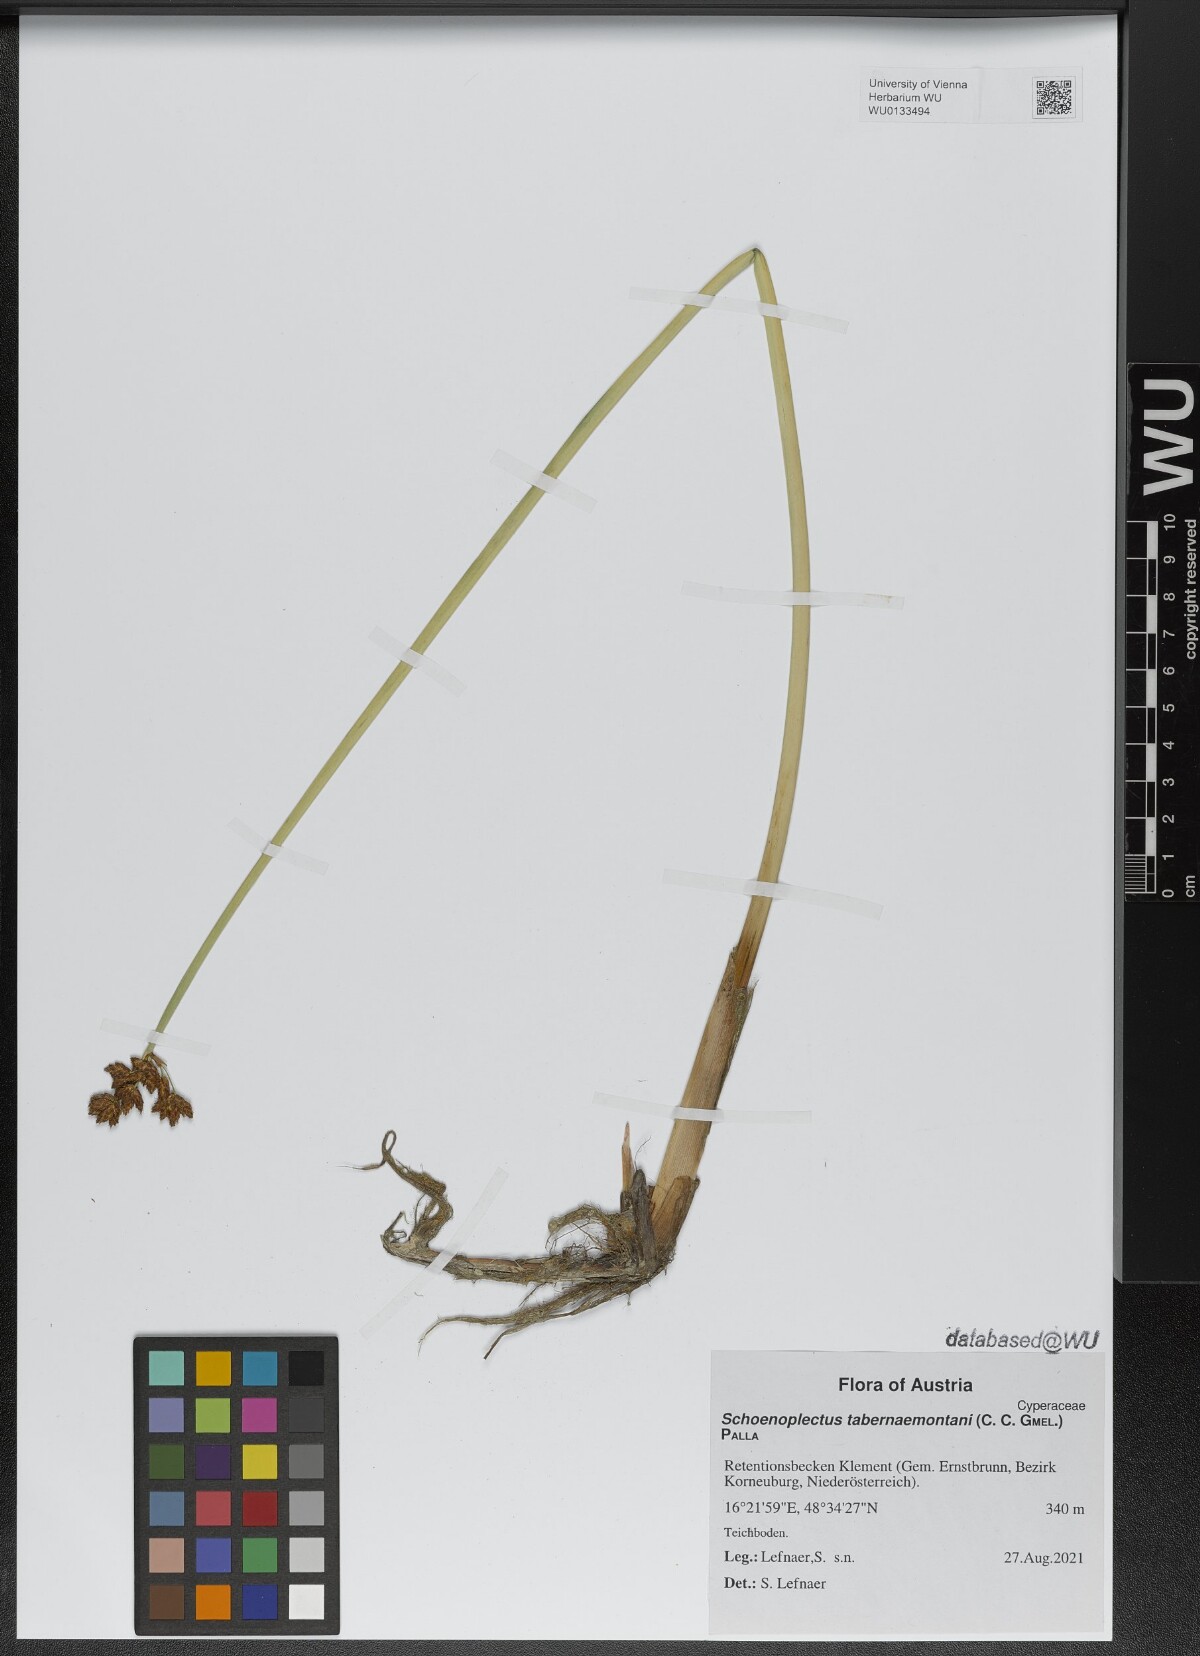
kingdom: Plantae
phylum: Tracheophyta
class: Liliopsida
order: Poales
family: Cyperaceae
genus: Schoenoplectus
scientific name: Schoenoplectus tabernaemontani
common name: Grey club-rush
